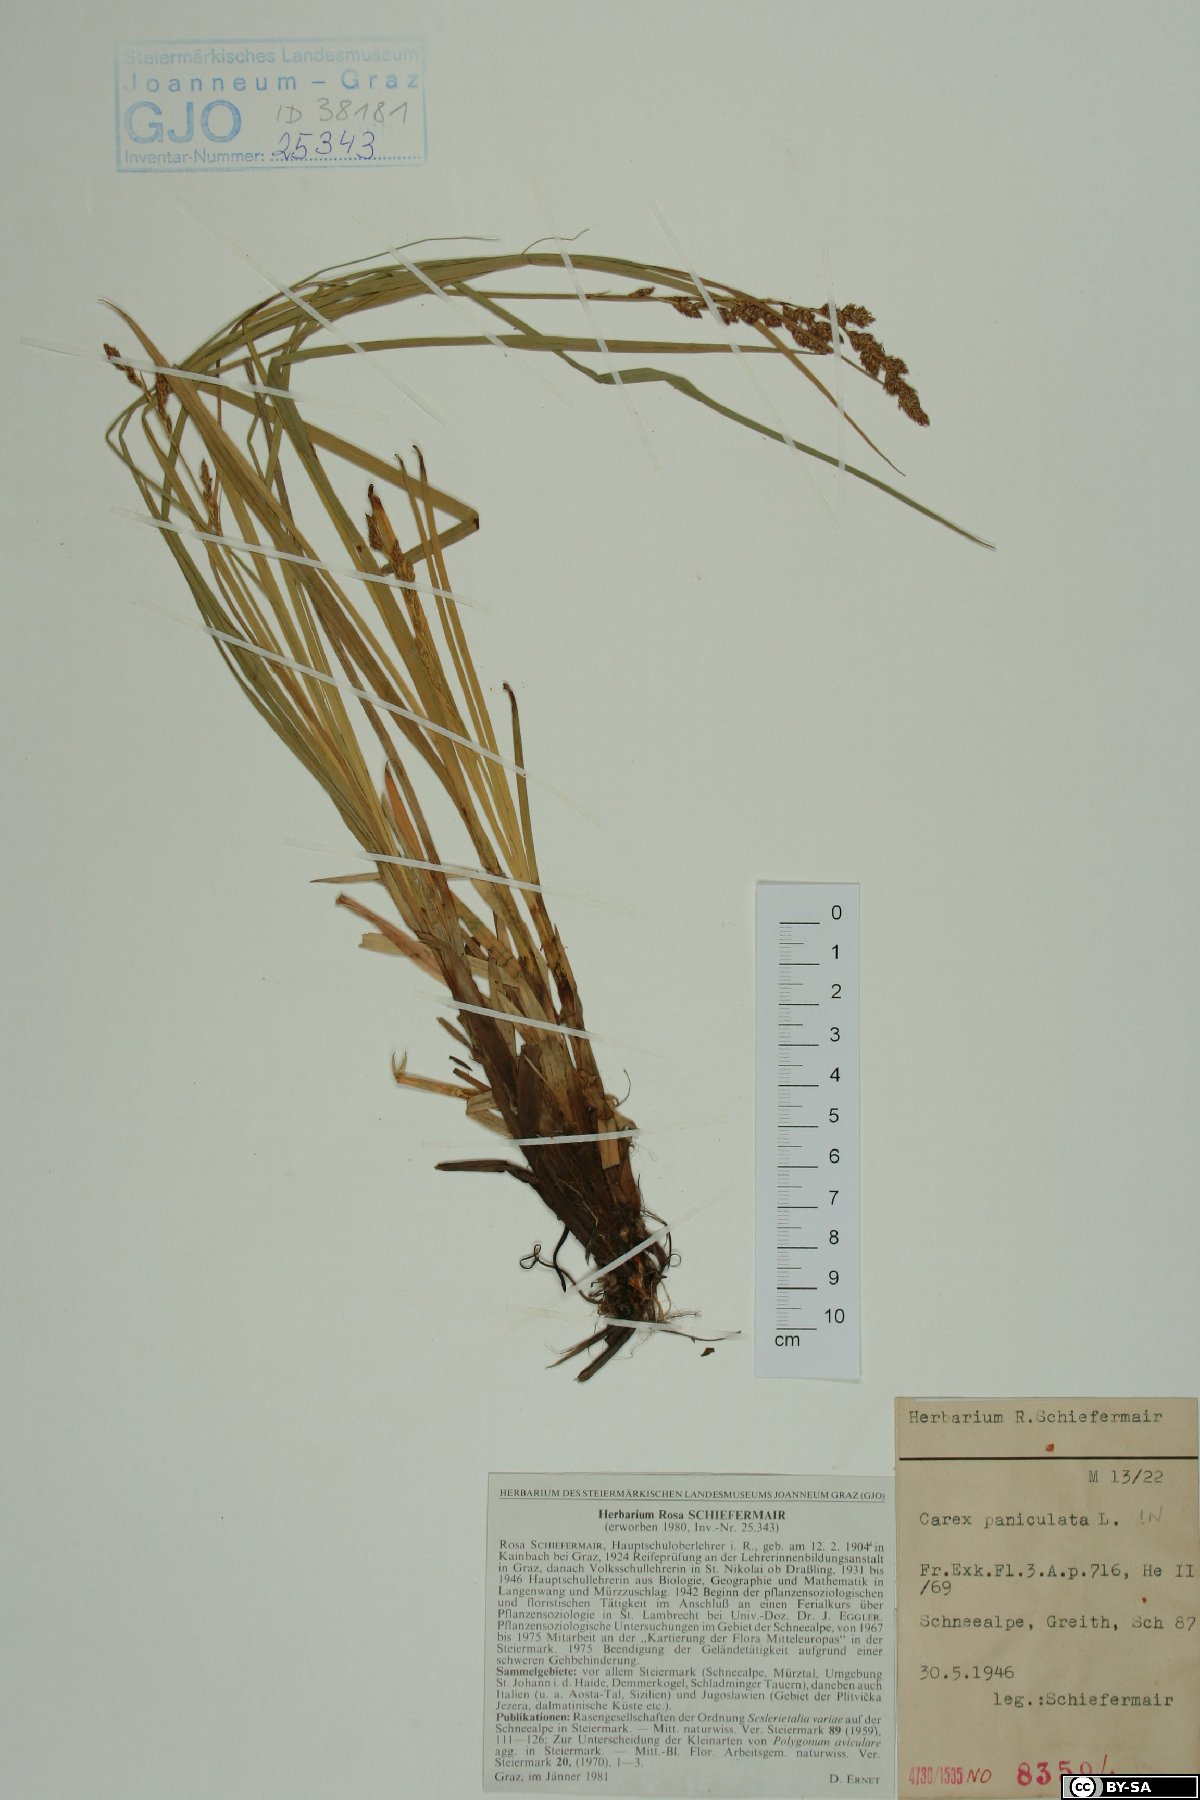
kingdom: Plantae
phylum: Tracheophyta
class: Liliopsida
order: Poales
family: Cyperaceae
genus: Carex
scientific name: Carex paniculata
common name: Greater tussock-sedge
